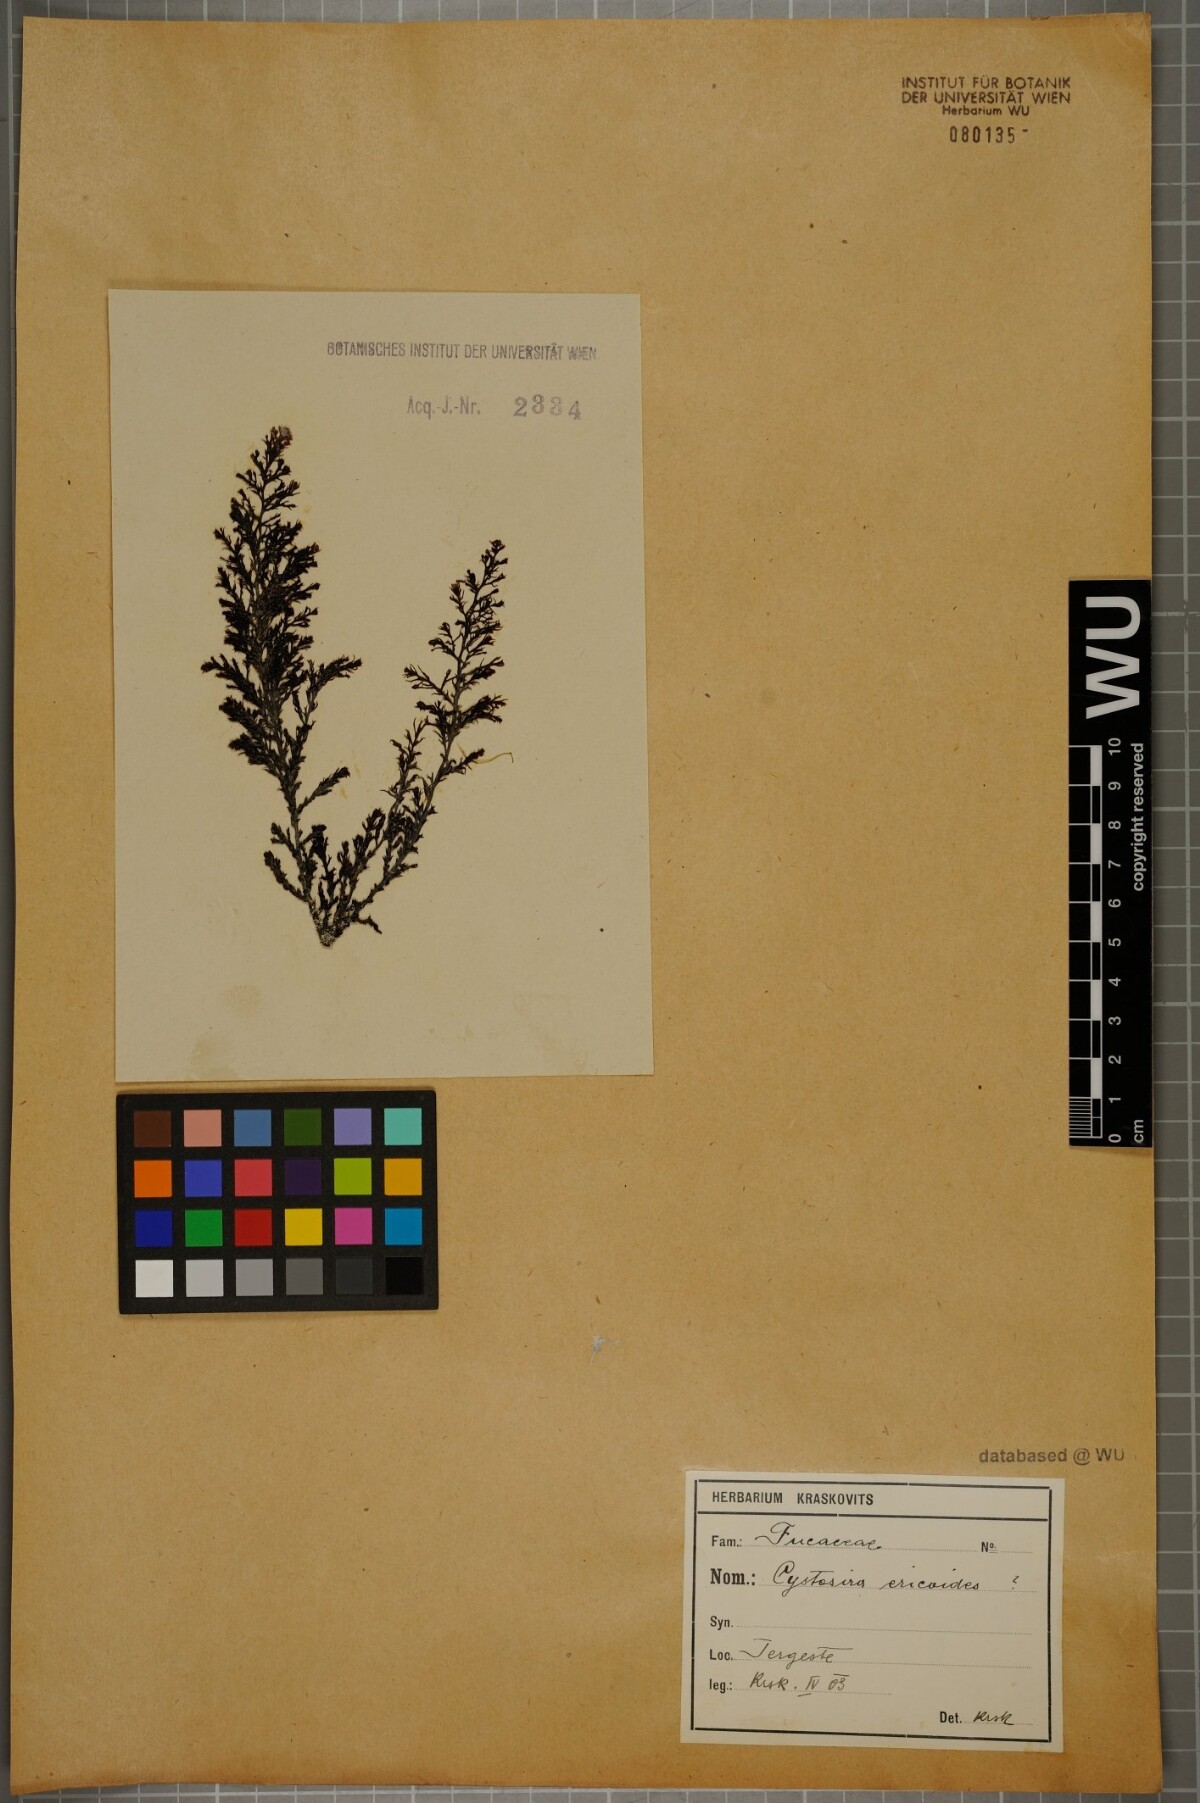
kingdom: Chromista
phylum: Ochrophyta
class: Phaeophyceae
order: Fucales
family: Sargassaceae
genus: Cystoseira
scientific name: Cystoseira Ericaria selaginoides
